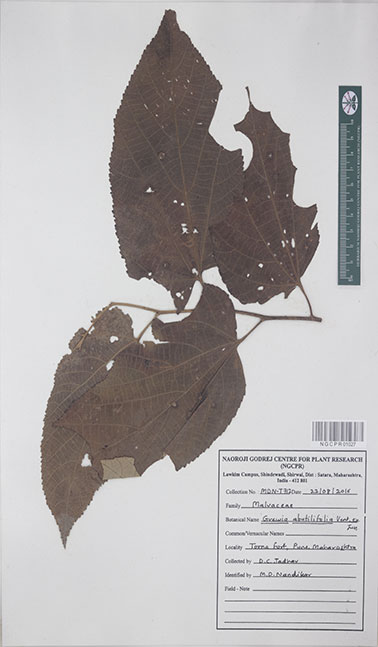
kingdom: Plantae
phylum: Tracheophyta
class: Magnoliopsida
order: Malvales
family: Malvaceae
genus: Grewia
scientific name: Grewia abutilifolia
